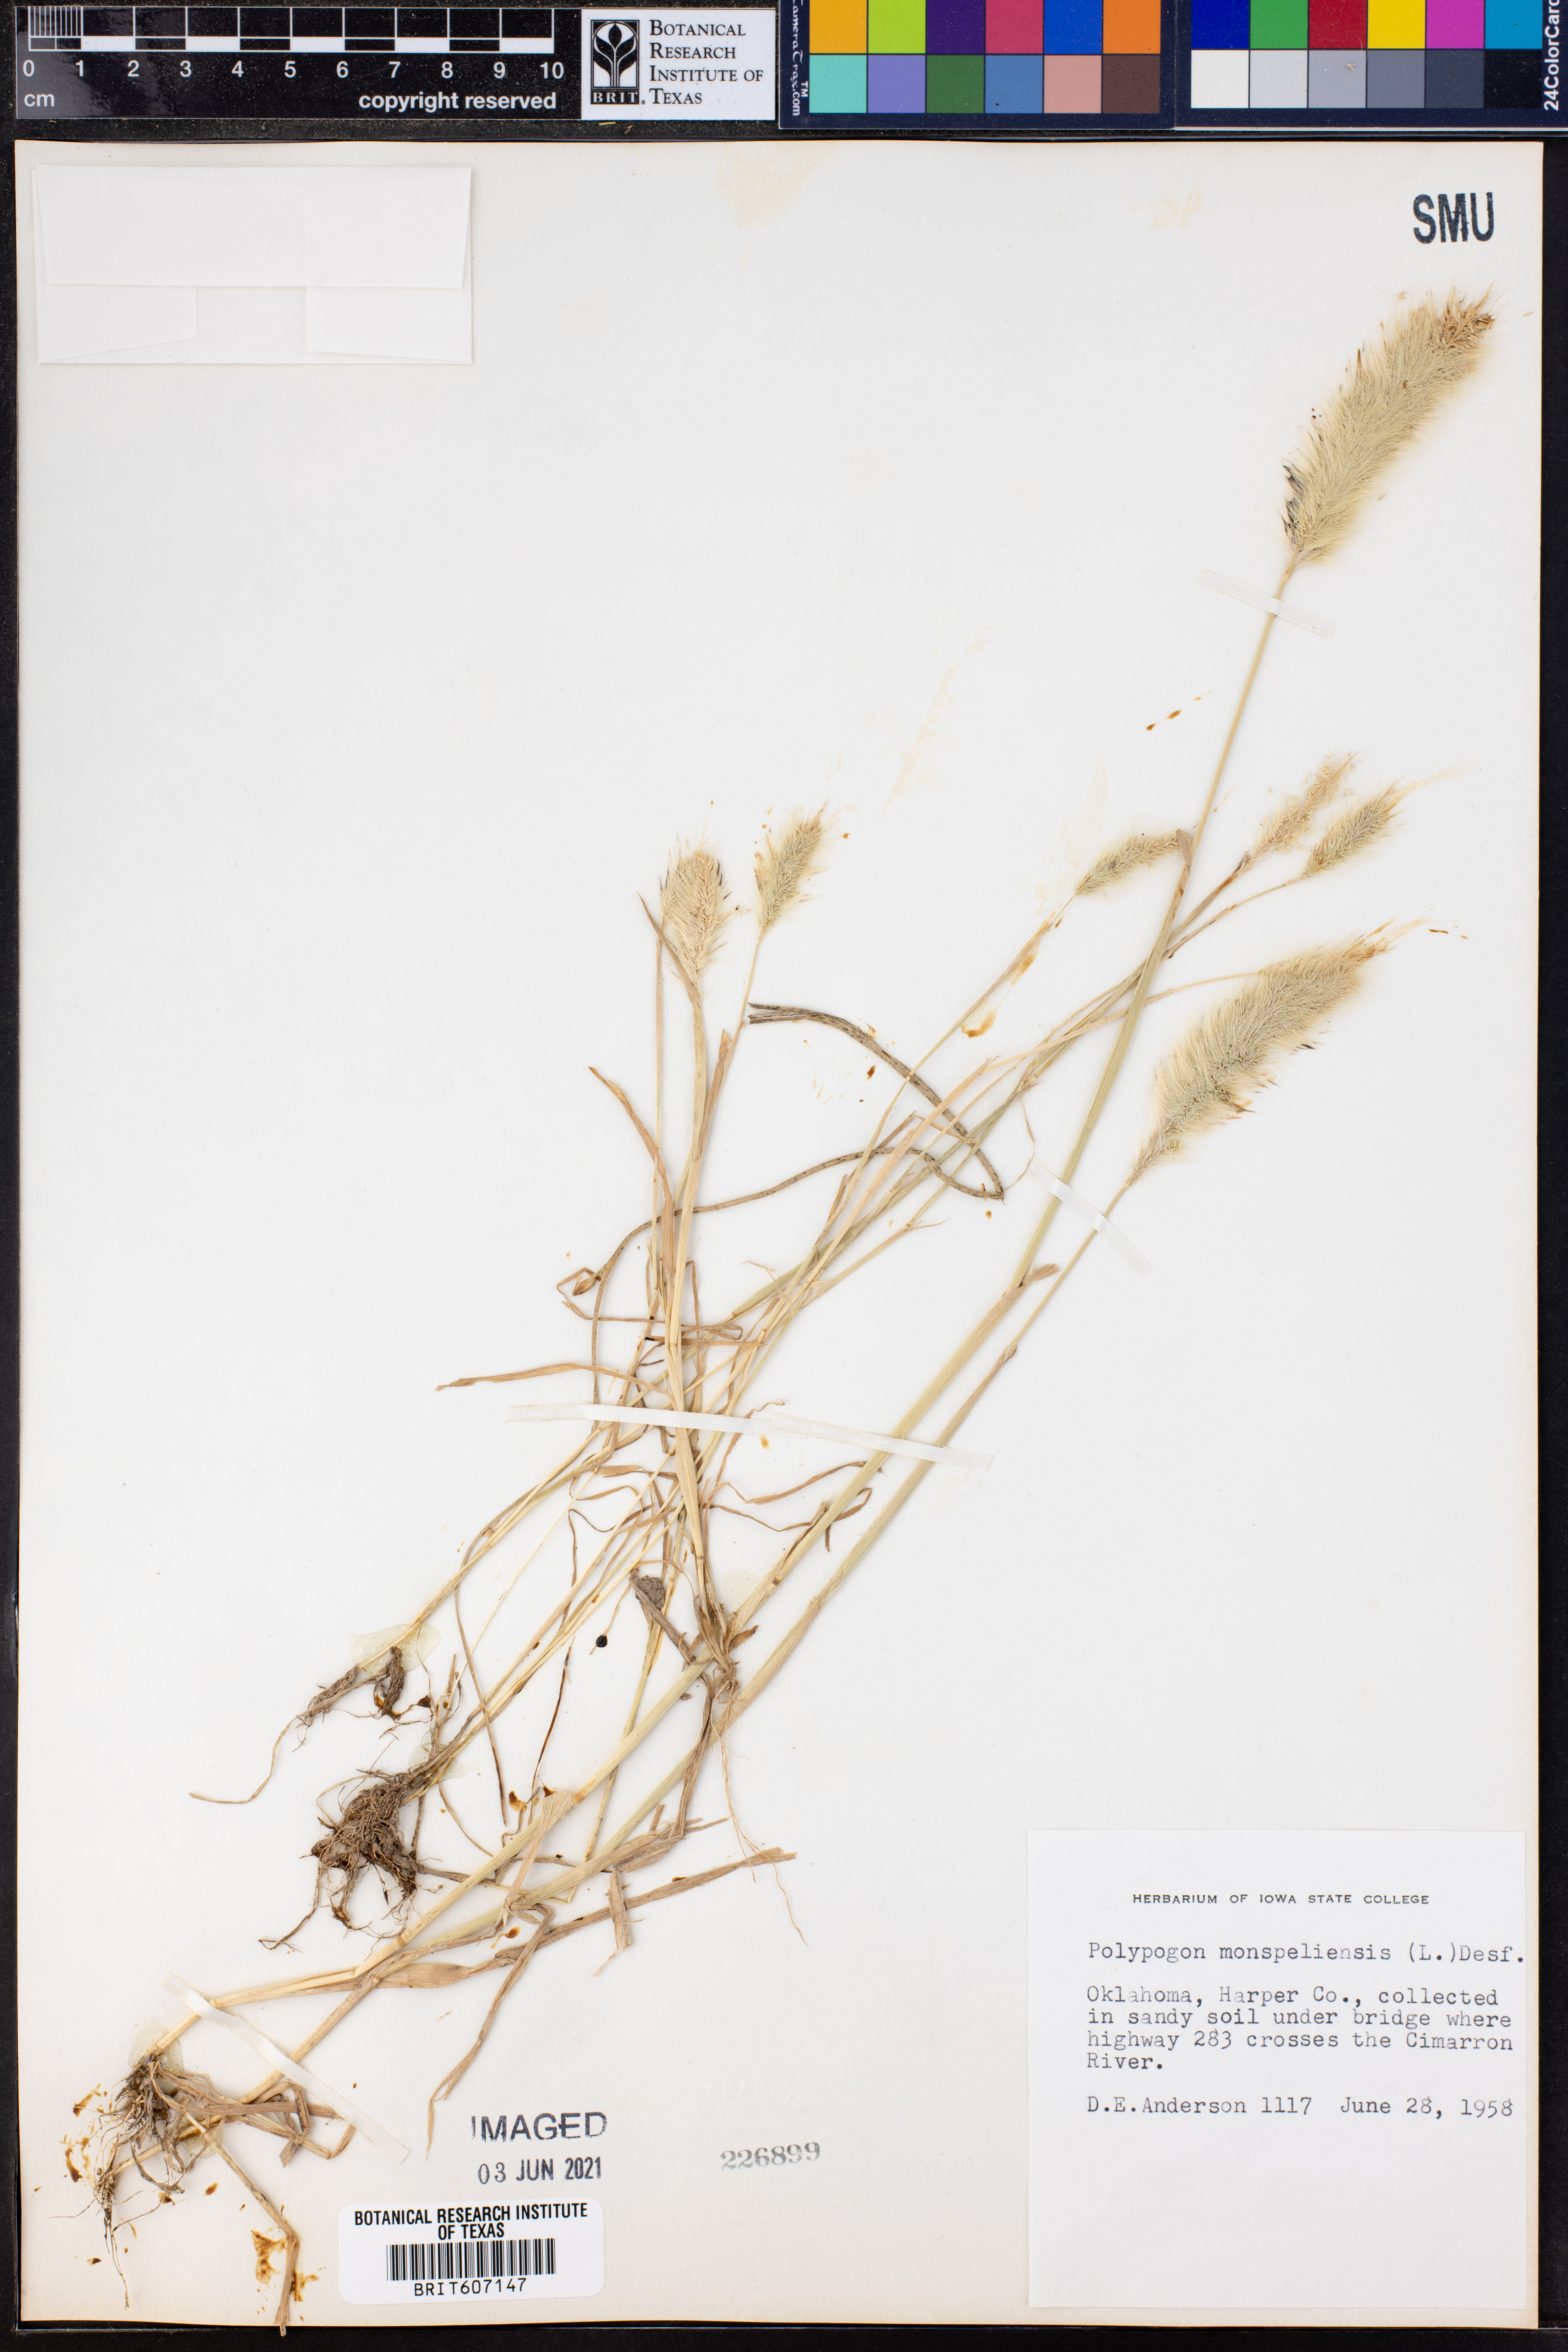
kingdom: Plantae
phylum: Tracheophyta
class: Liliopsida
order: Poales
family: Poaceae
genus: Polypogon
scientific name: Polypogon monspeliensis
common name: Annual rabbitsfoot grass
